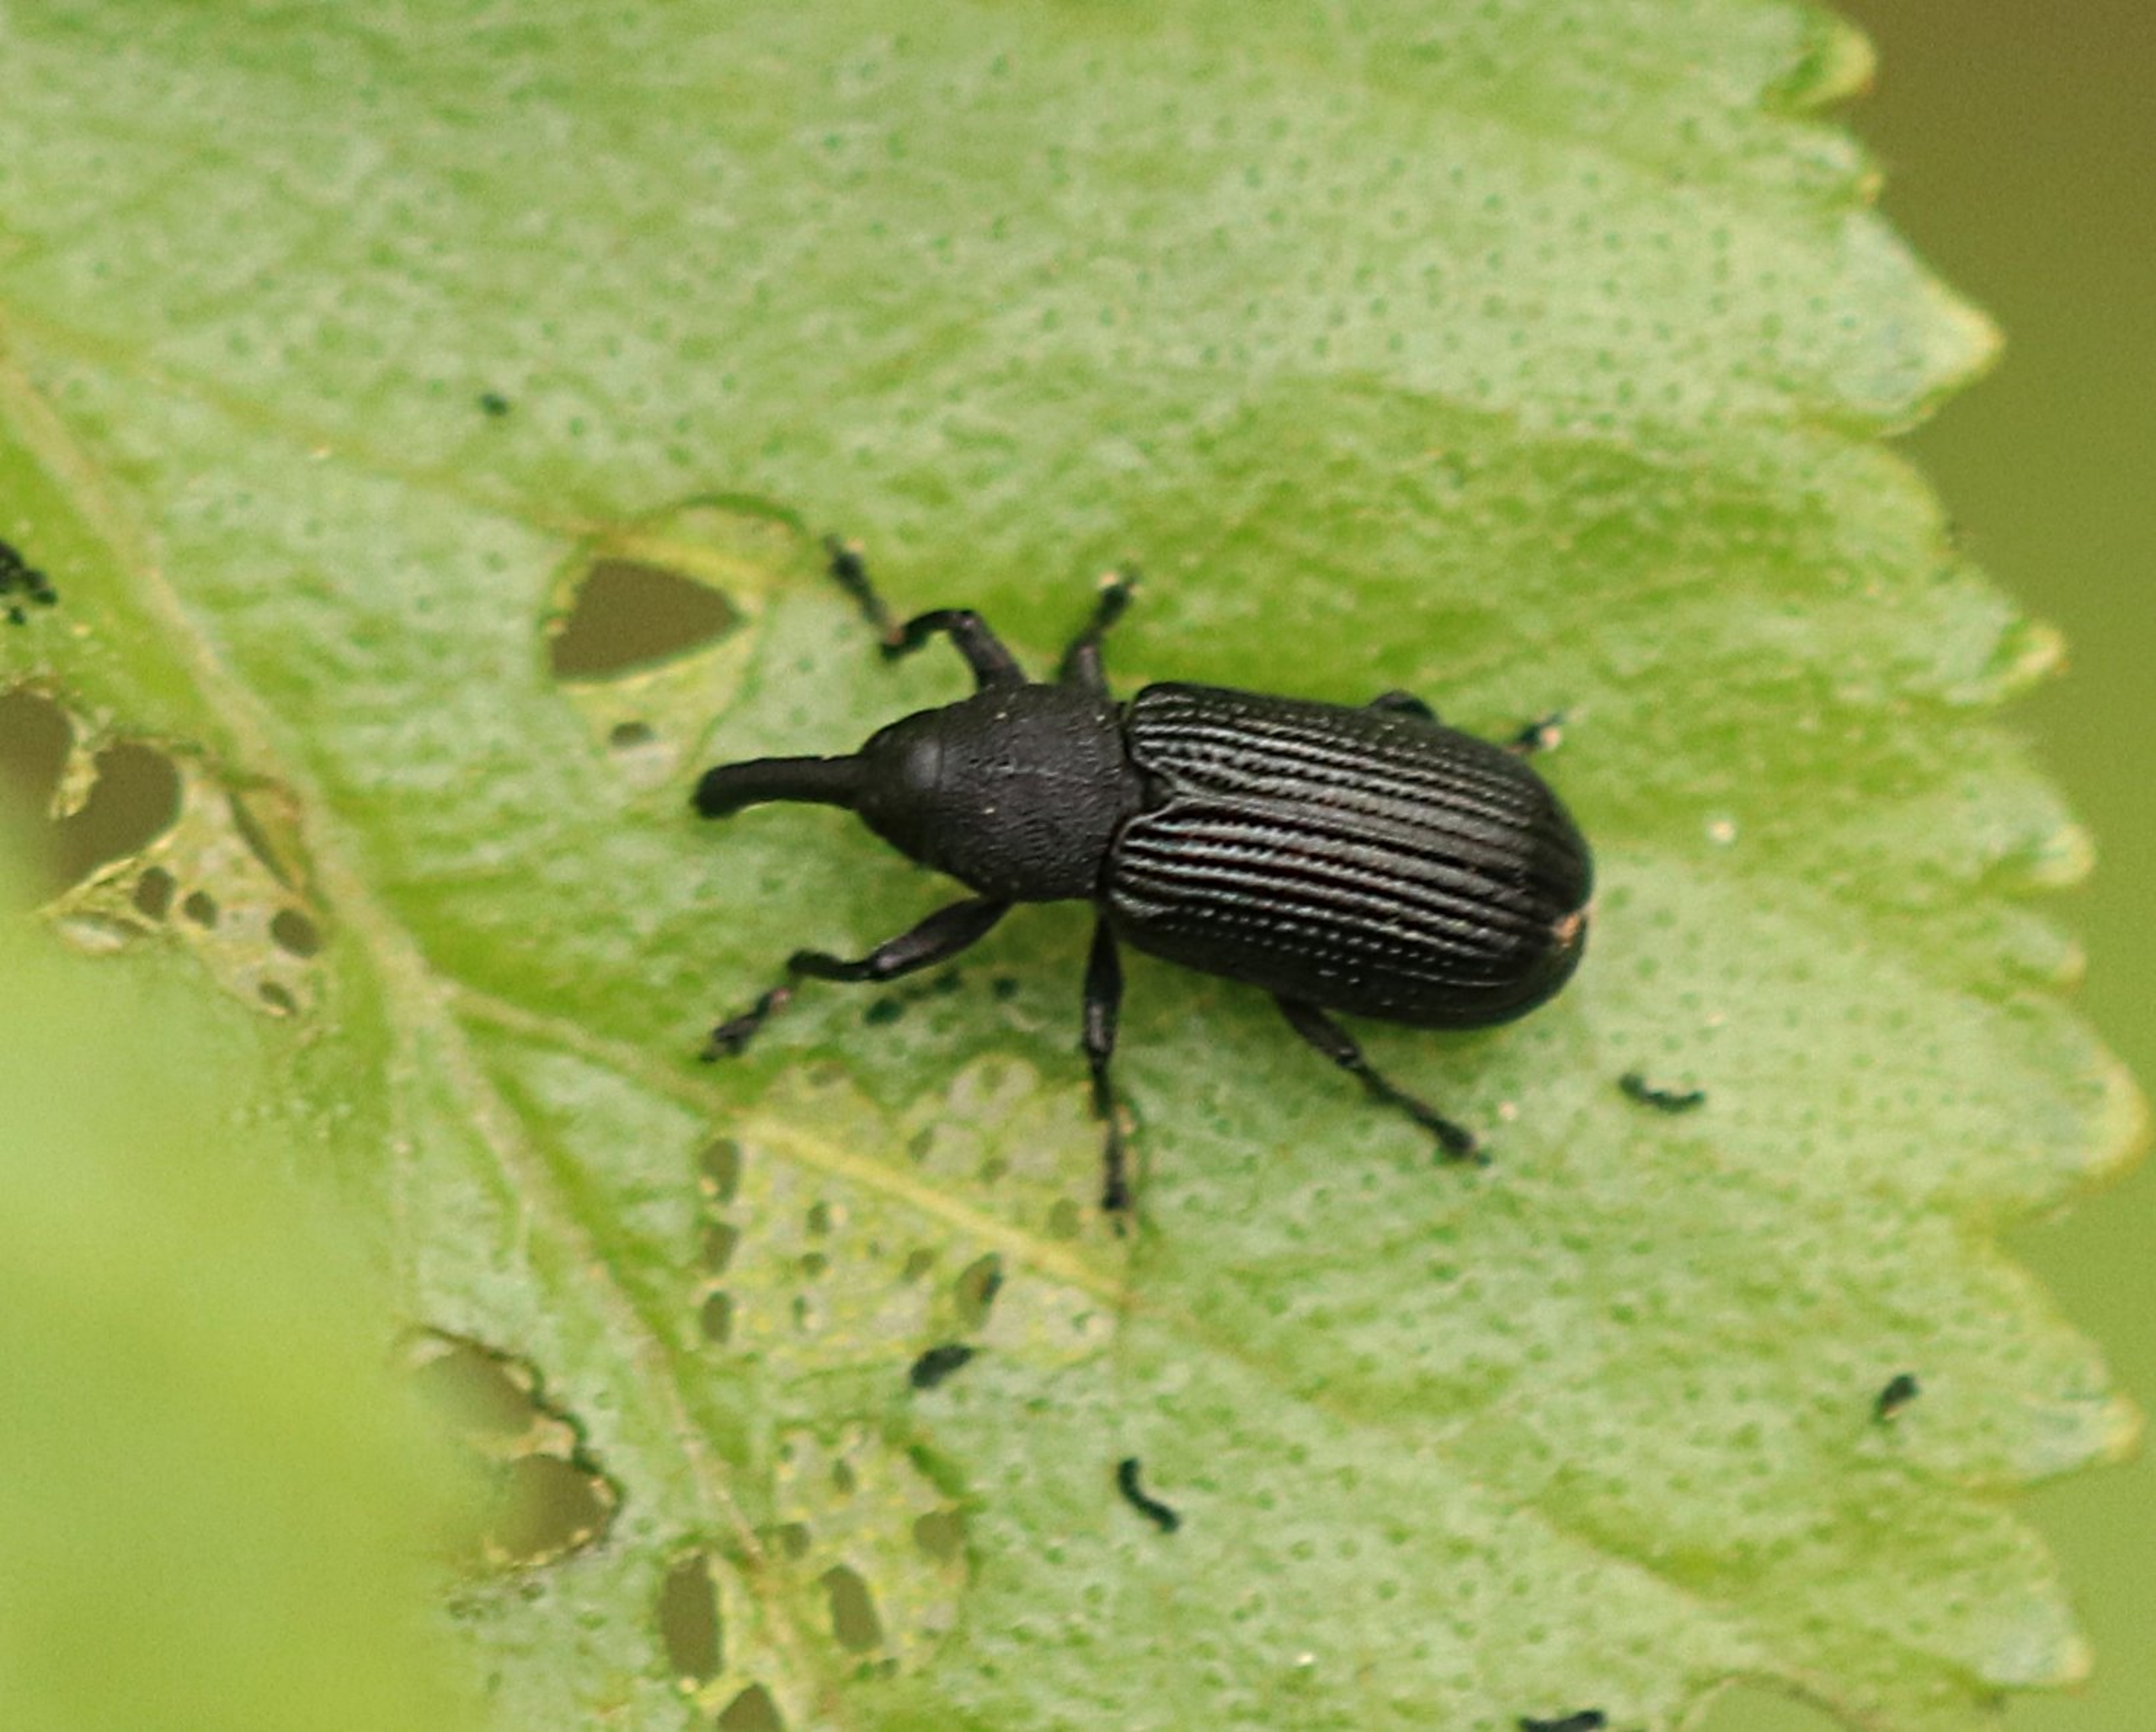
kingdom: Animalia
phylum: Arthropoda
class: Insecta
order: Coleoptera
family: Curculionidae
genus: Magdalis
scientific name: Magdalis carbonaria
